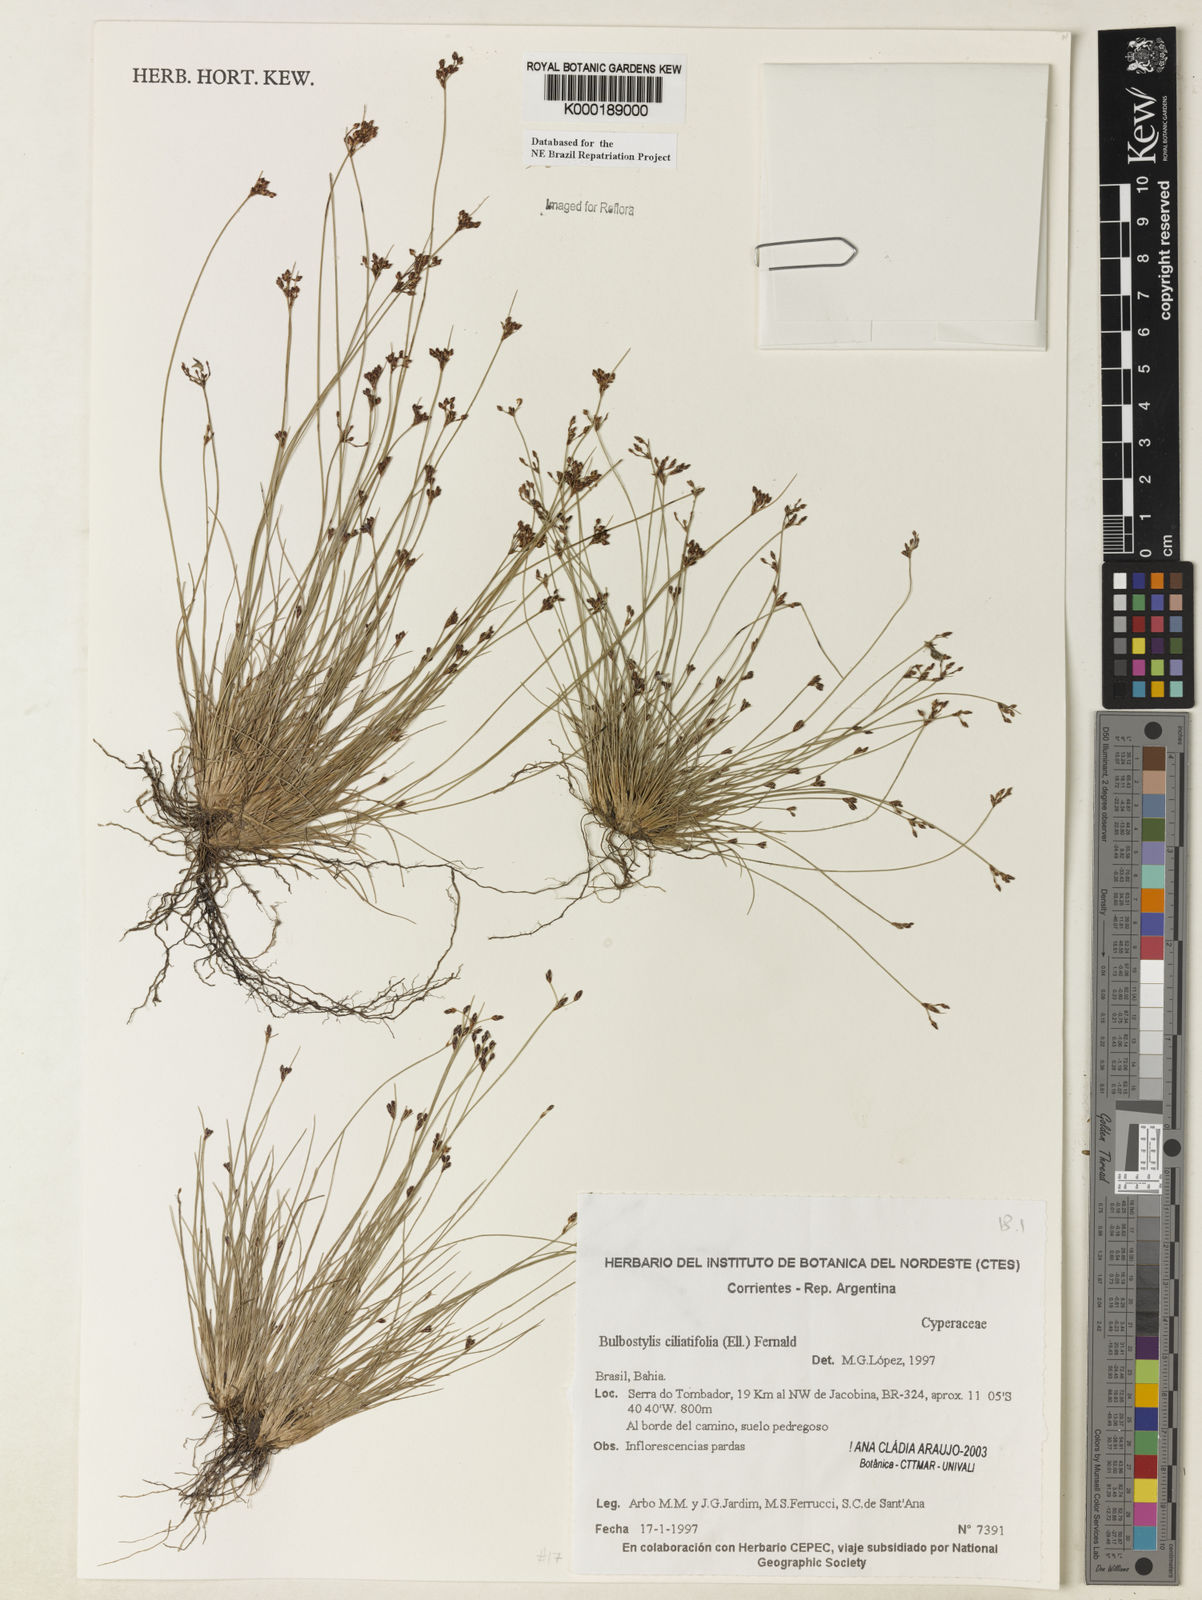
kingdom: Plantae
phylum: Tracheophyta
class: Liliopsida
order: Poales
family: Cyperaceae
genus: Bulbostylis
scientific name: Bulbostylis ciliatifolia
